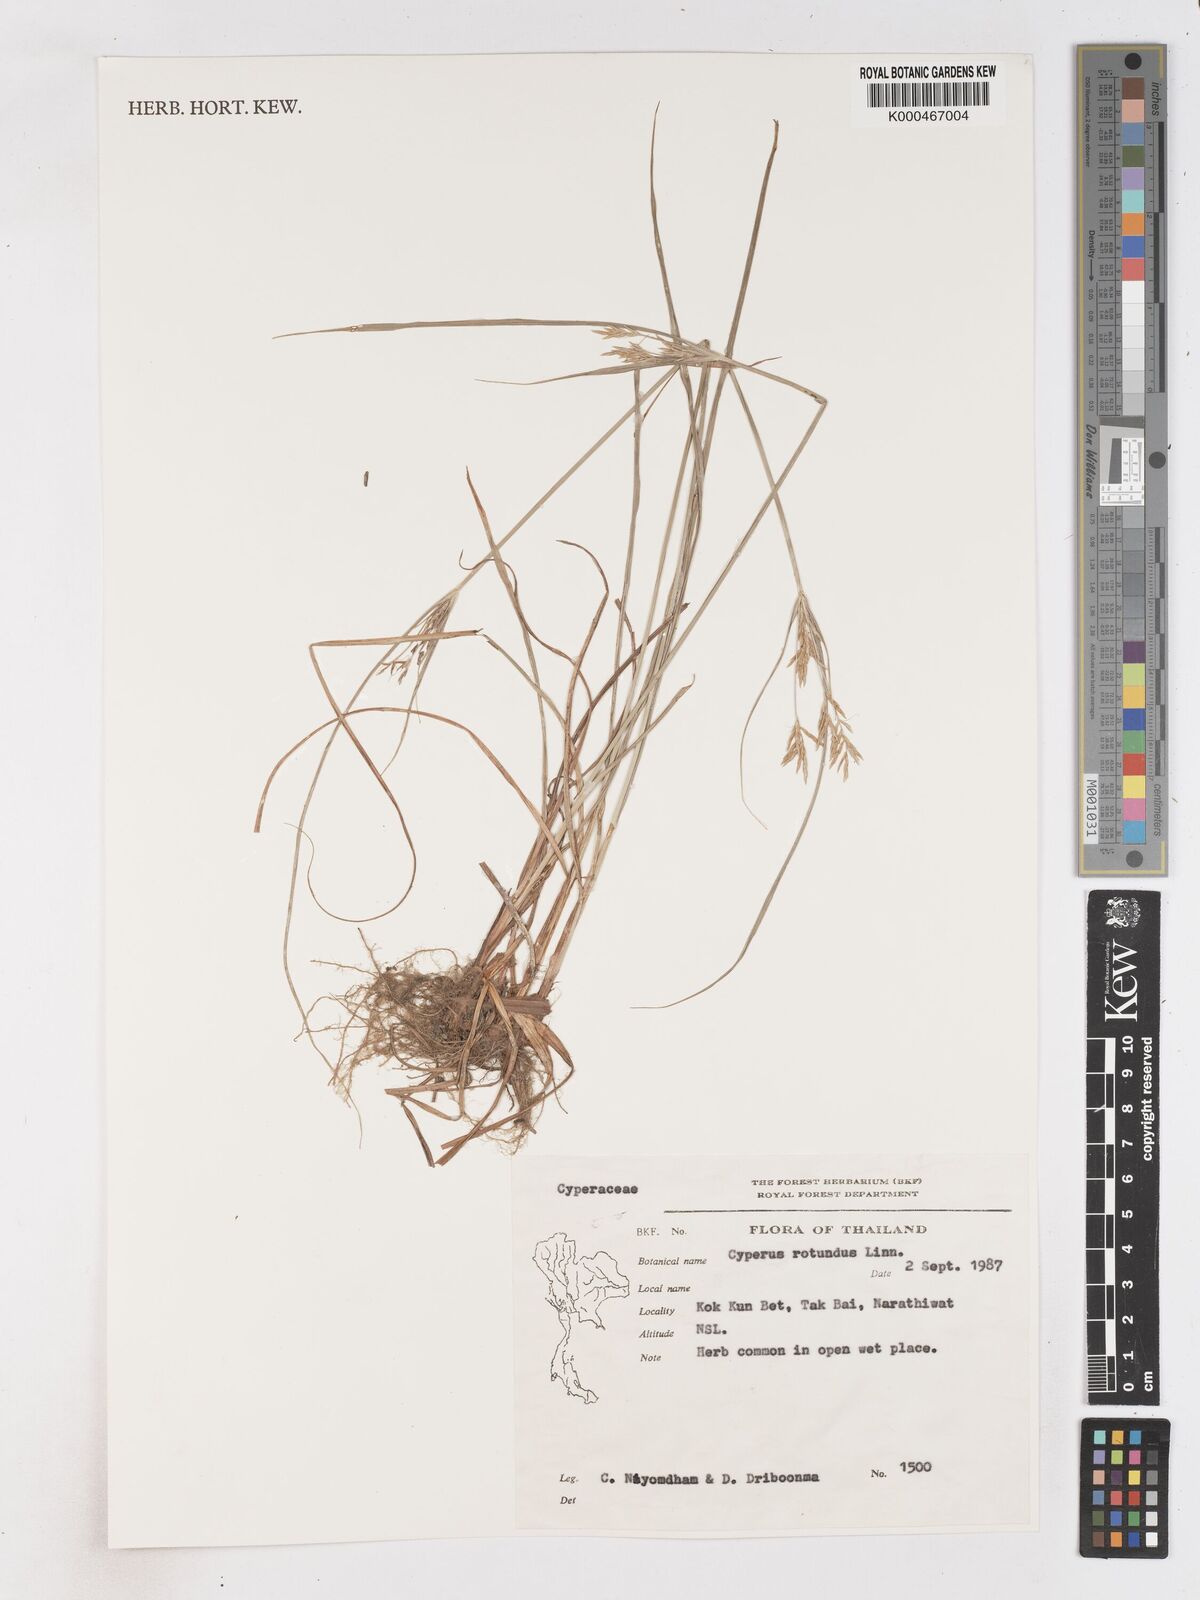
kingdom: Plantae
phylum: Tracheophyta
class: Liliopsida
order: Poales
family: Cyperaceae
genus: Cyperus
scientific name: Cyperus rotundus
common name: Nutgrass
